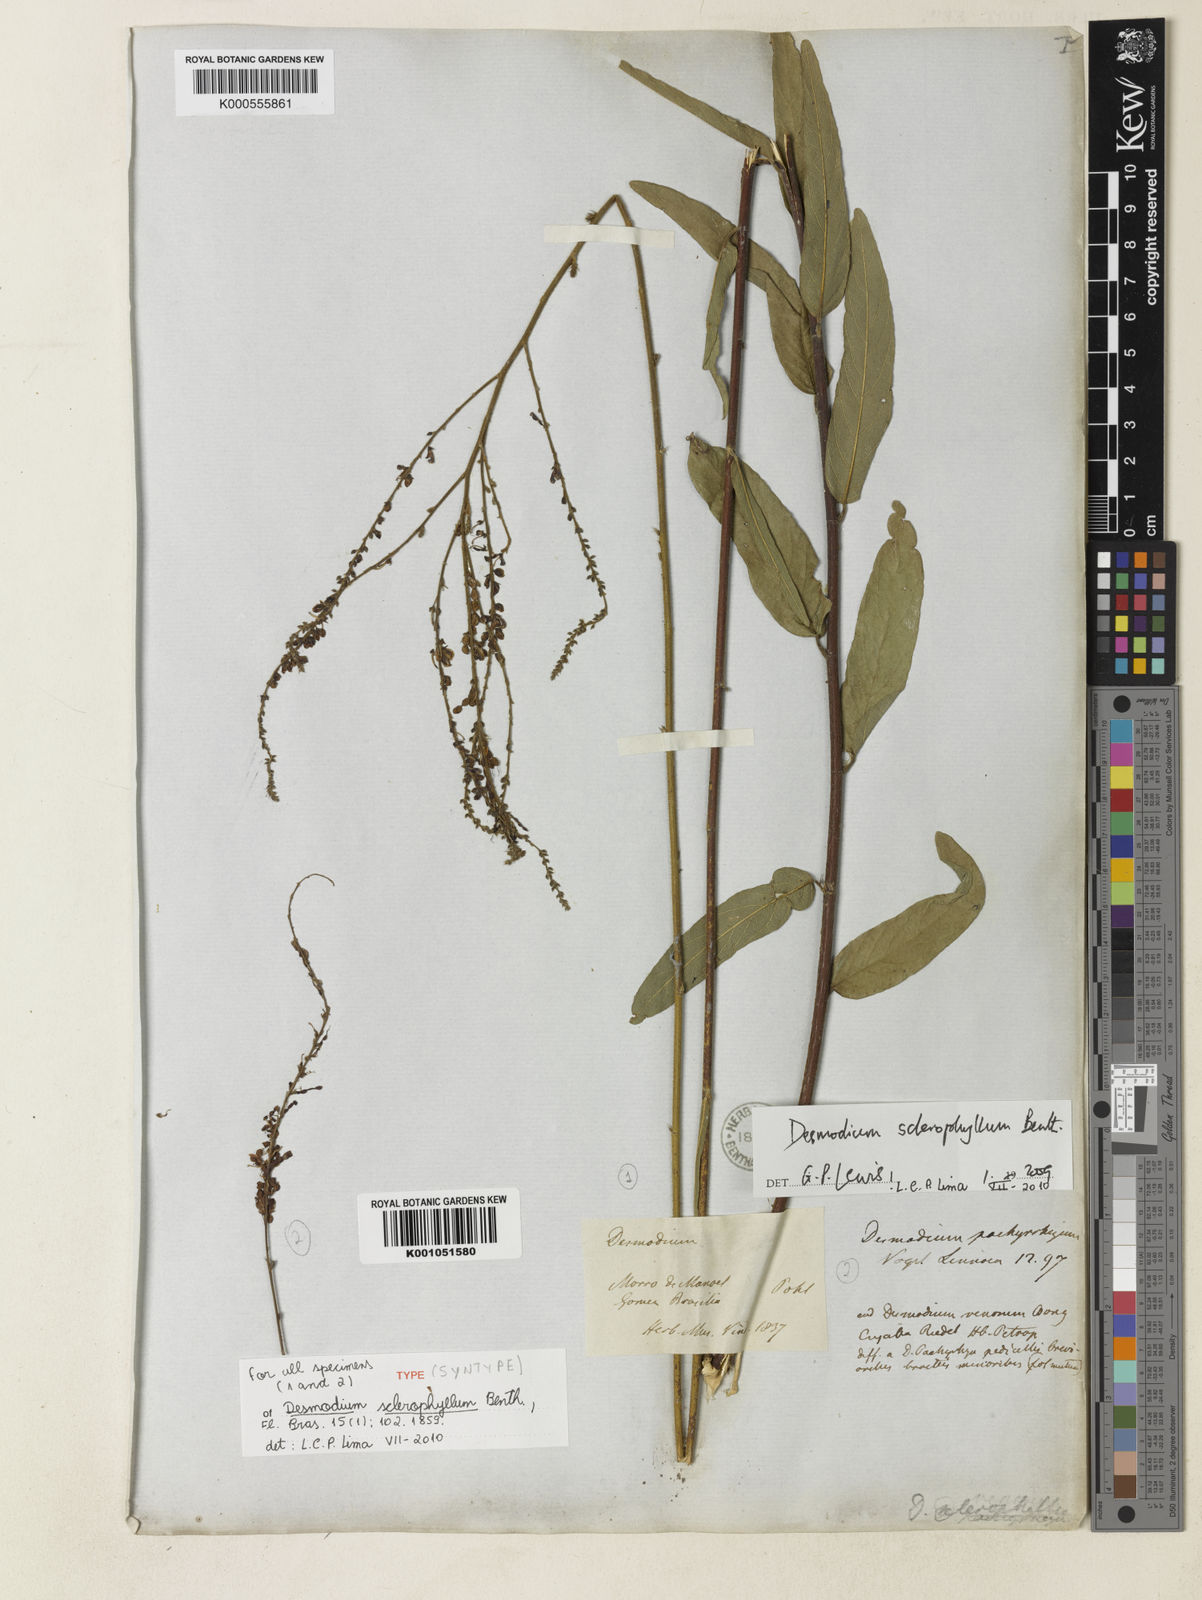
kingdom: Plantae
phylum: Tracheophyta
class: Magnoliopsida
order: Fabales
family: Fabaceae
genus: Desmodium
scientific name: Desmodium sclerophyllum
